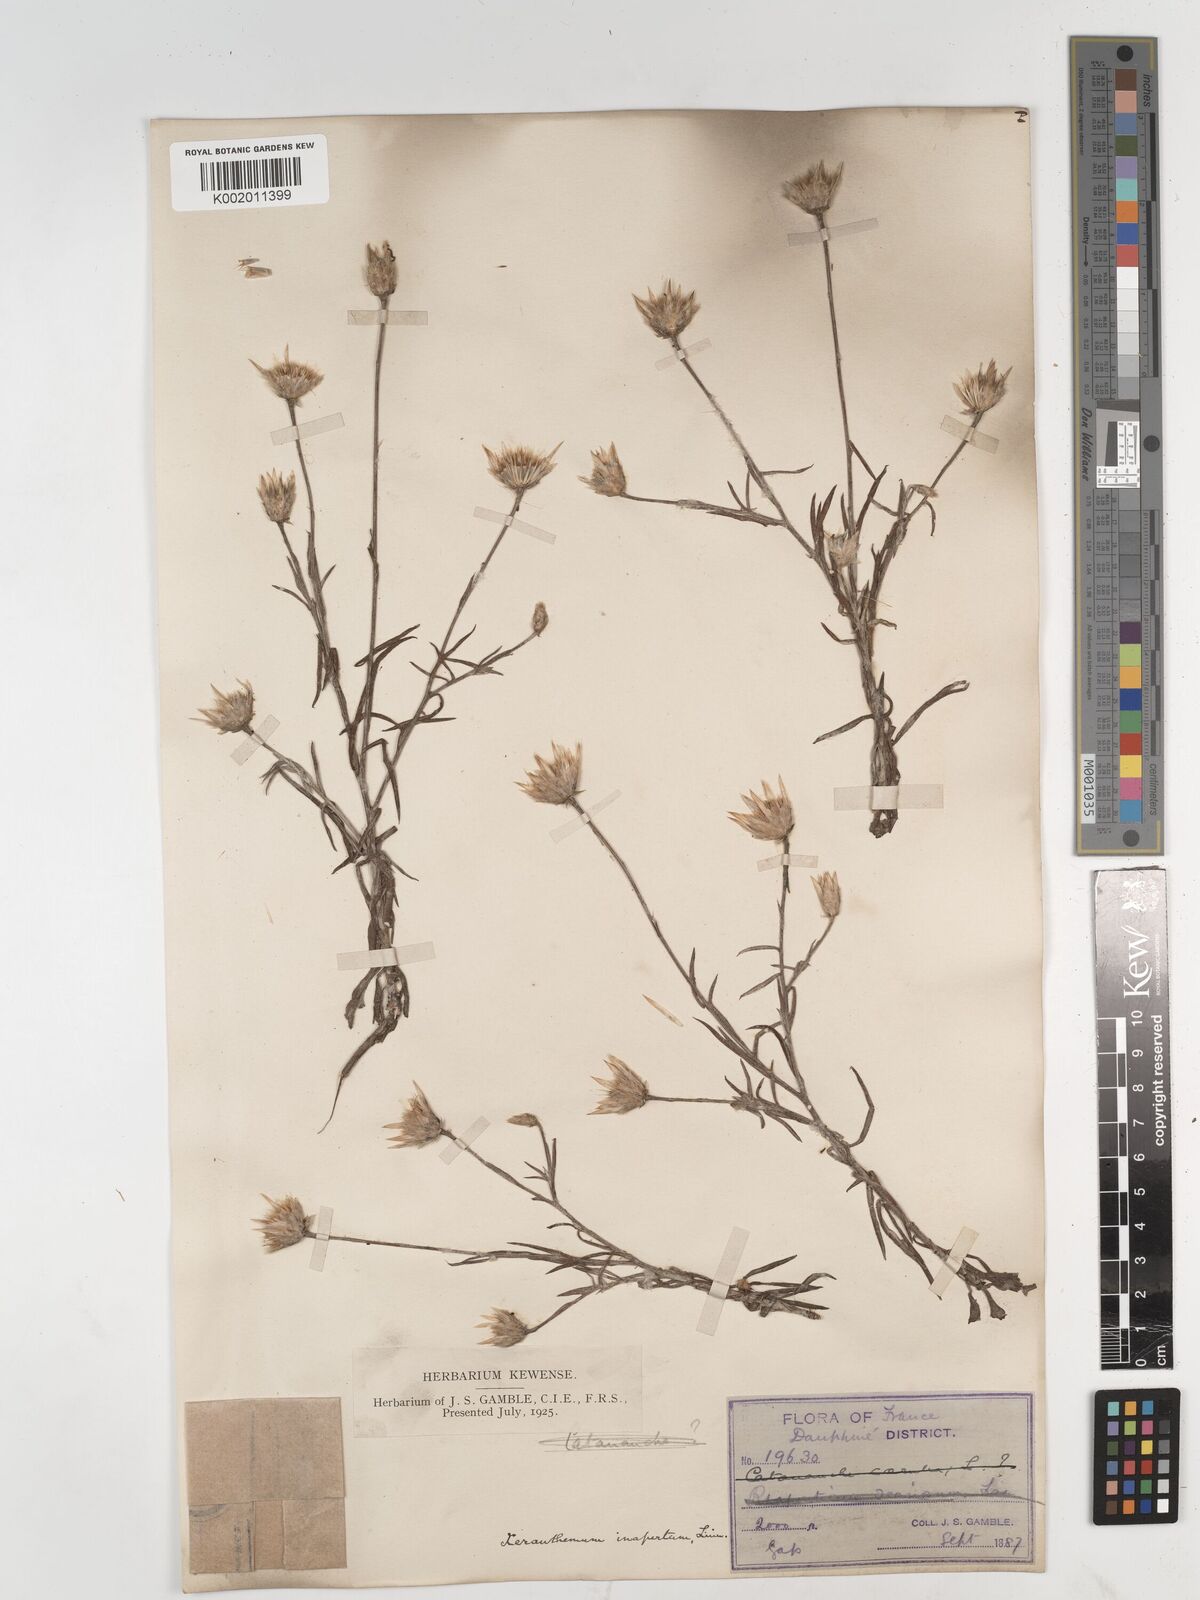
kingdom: Plantae
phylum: Tracheophyta
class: Magnoliopsida
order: Asterales
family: Asteraceae
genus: Xeranthemum
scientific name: Xeranthemum inapertum
